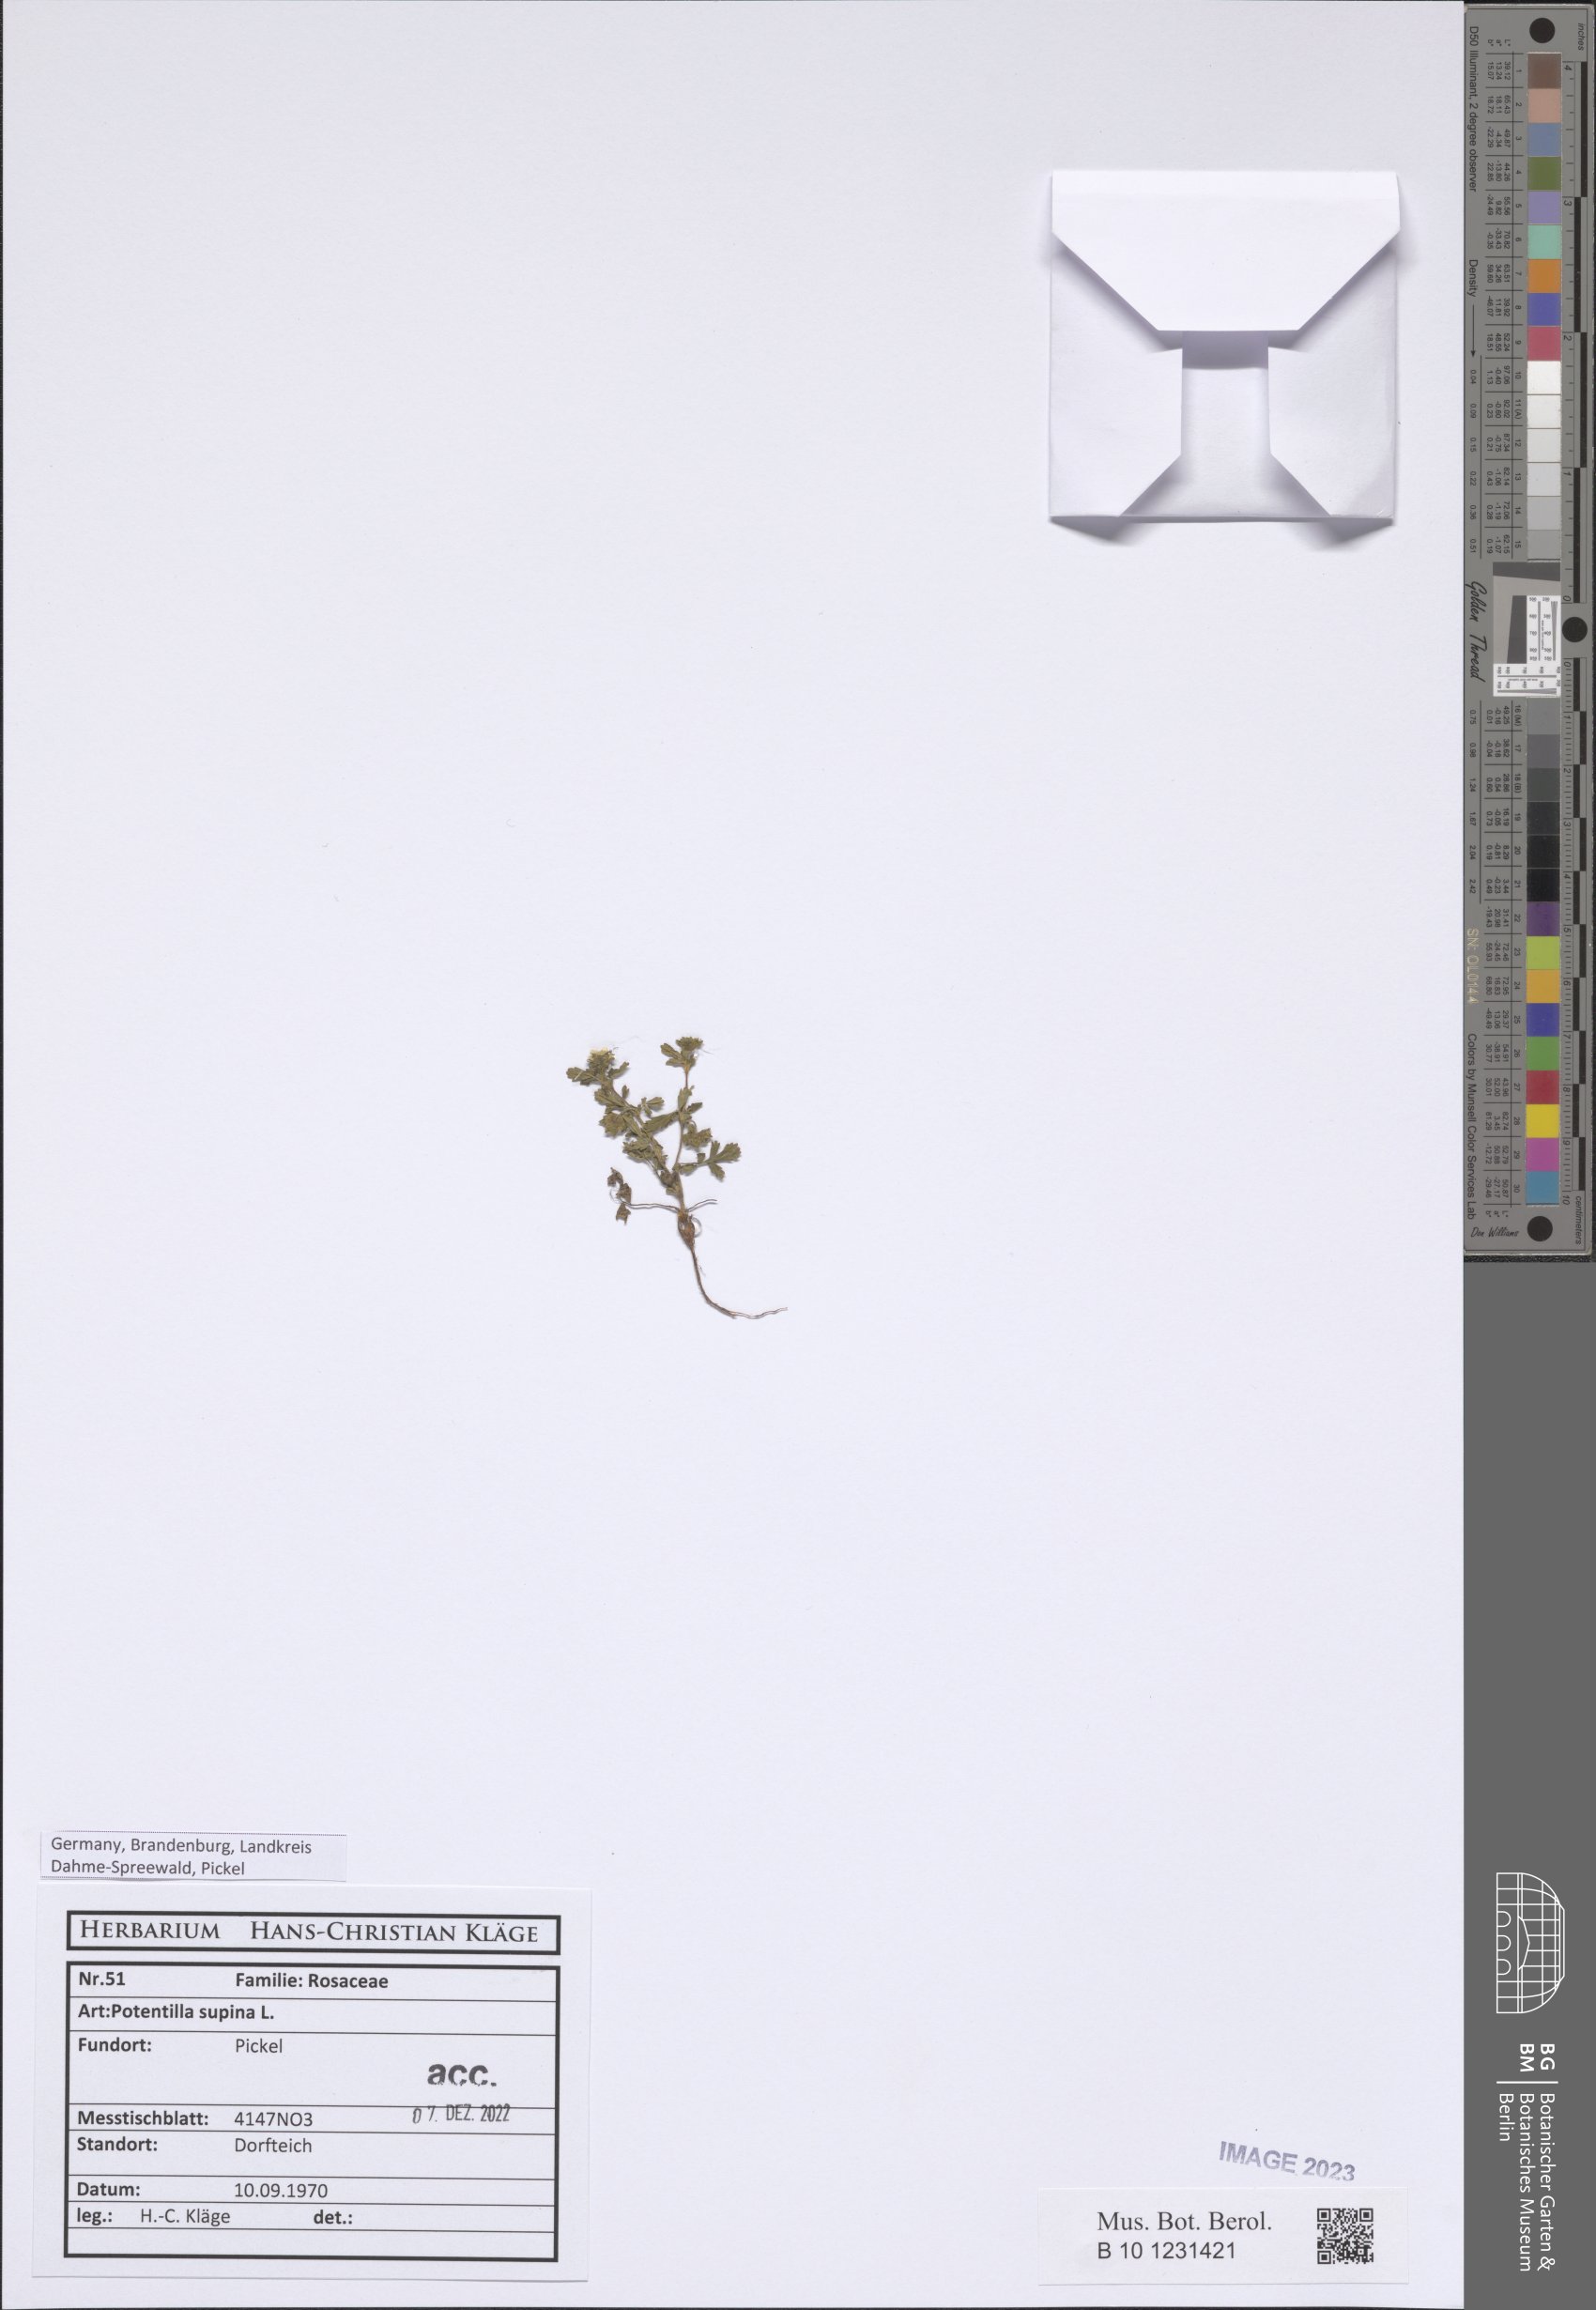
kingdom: Plantae
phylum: Tracheophyta
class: Magnoliopsida
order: Rosales
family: Rosaceae
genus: Potentilla
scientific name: Potentilla supina
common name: Prostrate cinquefoil
